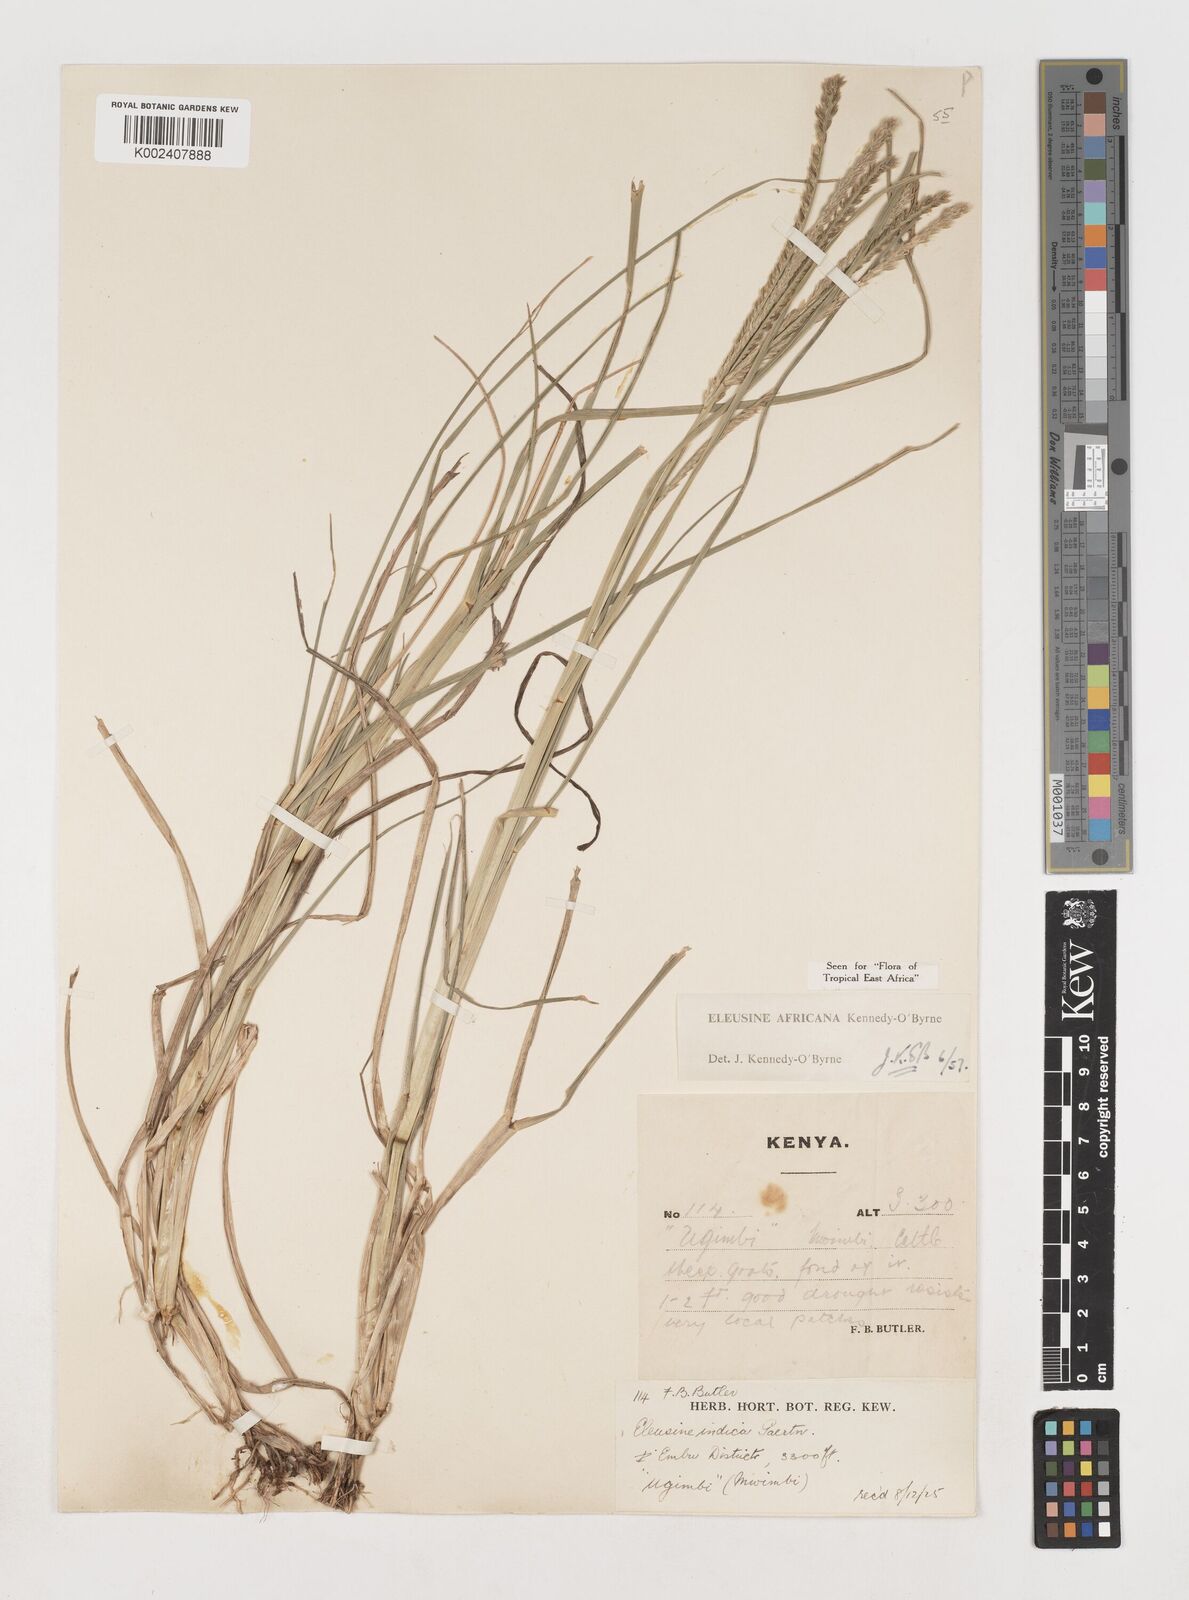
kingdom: Plantae
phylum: Tracheophyta
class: Liliopsida
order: Poales
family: Poaceae
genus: Eleusine
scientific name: Eleusine africana
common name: Wild african finger millet
